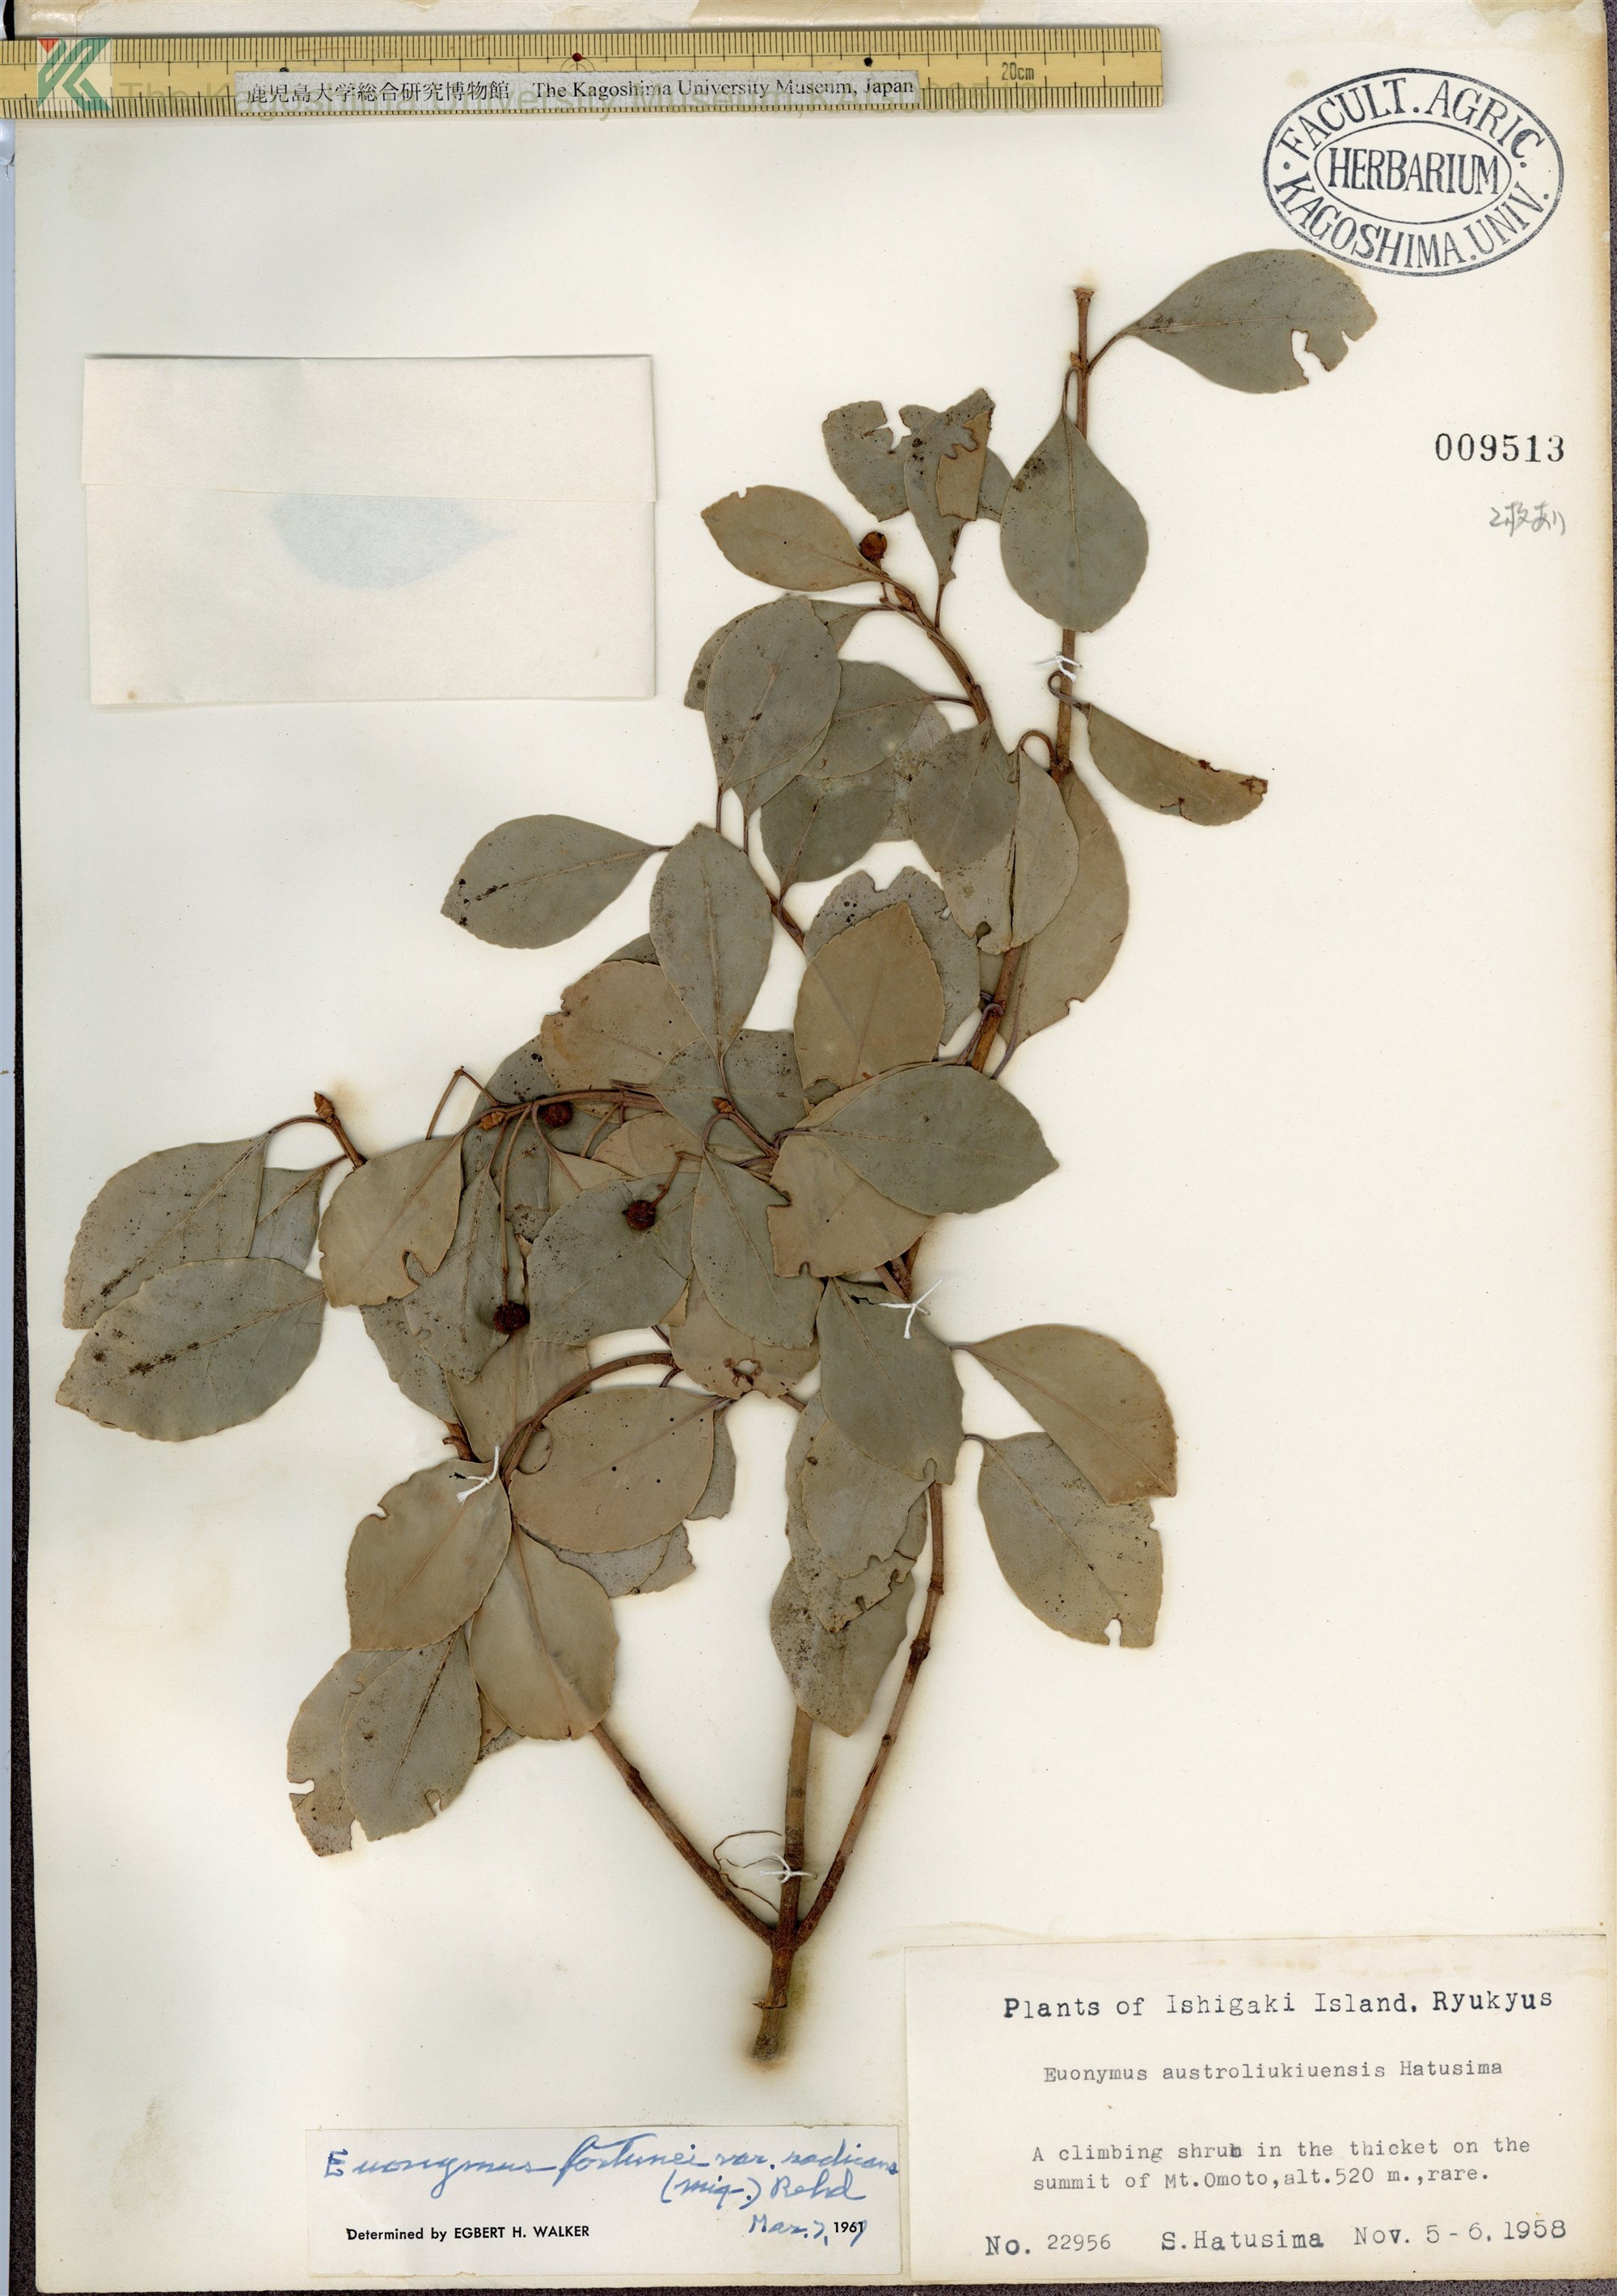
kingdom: Plantae
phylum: Tracheophyta
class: Magnoliopsida
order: Celastrales
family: Celastraceae
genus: Euonymus
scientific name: Euonymus fortunei
